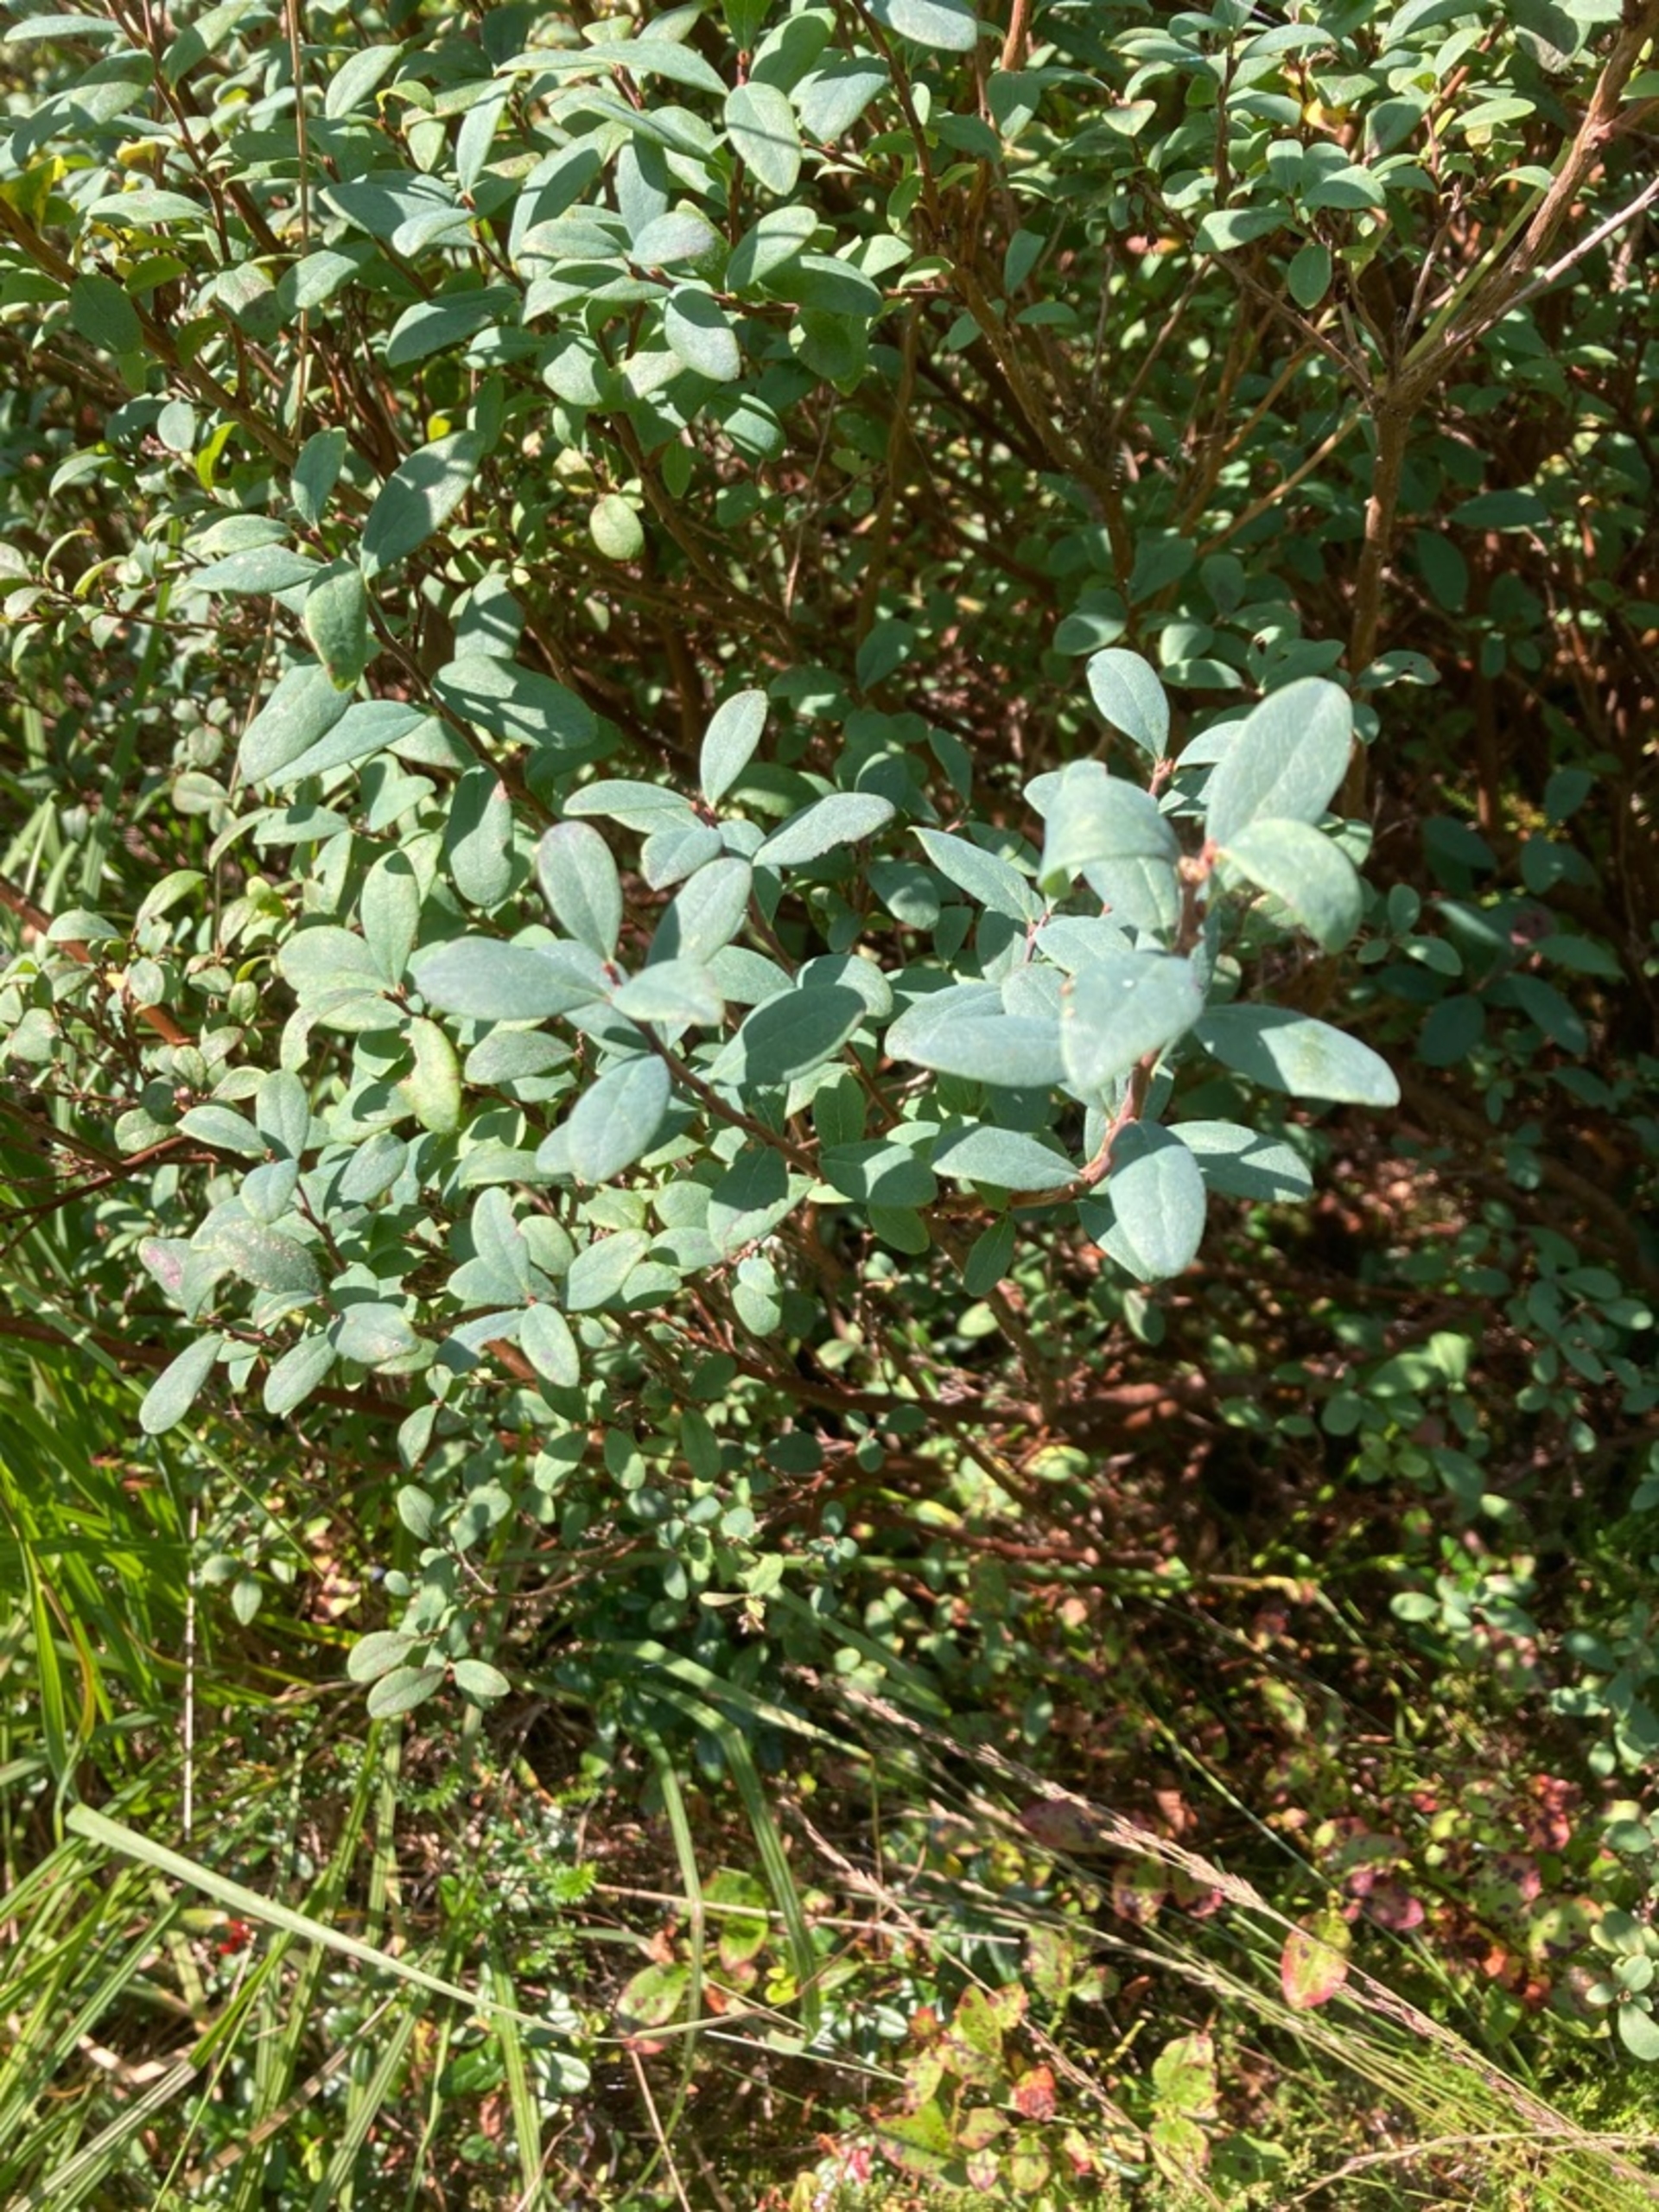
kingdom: Plantae
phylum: Tracheophyta
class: Magnoliopsida
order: Ericales
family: Ericaceae
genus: Vaccinium
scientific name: Vaccinium uliginosum
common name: Mose-bølle
